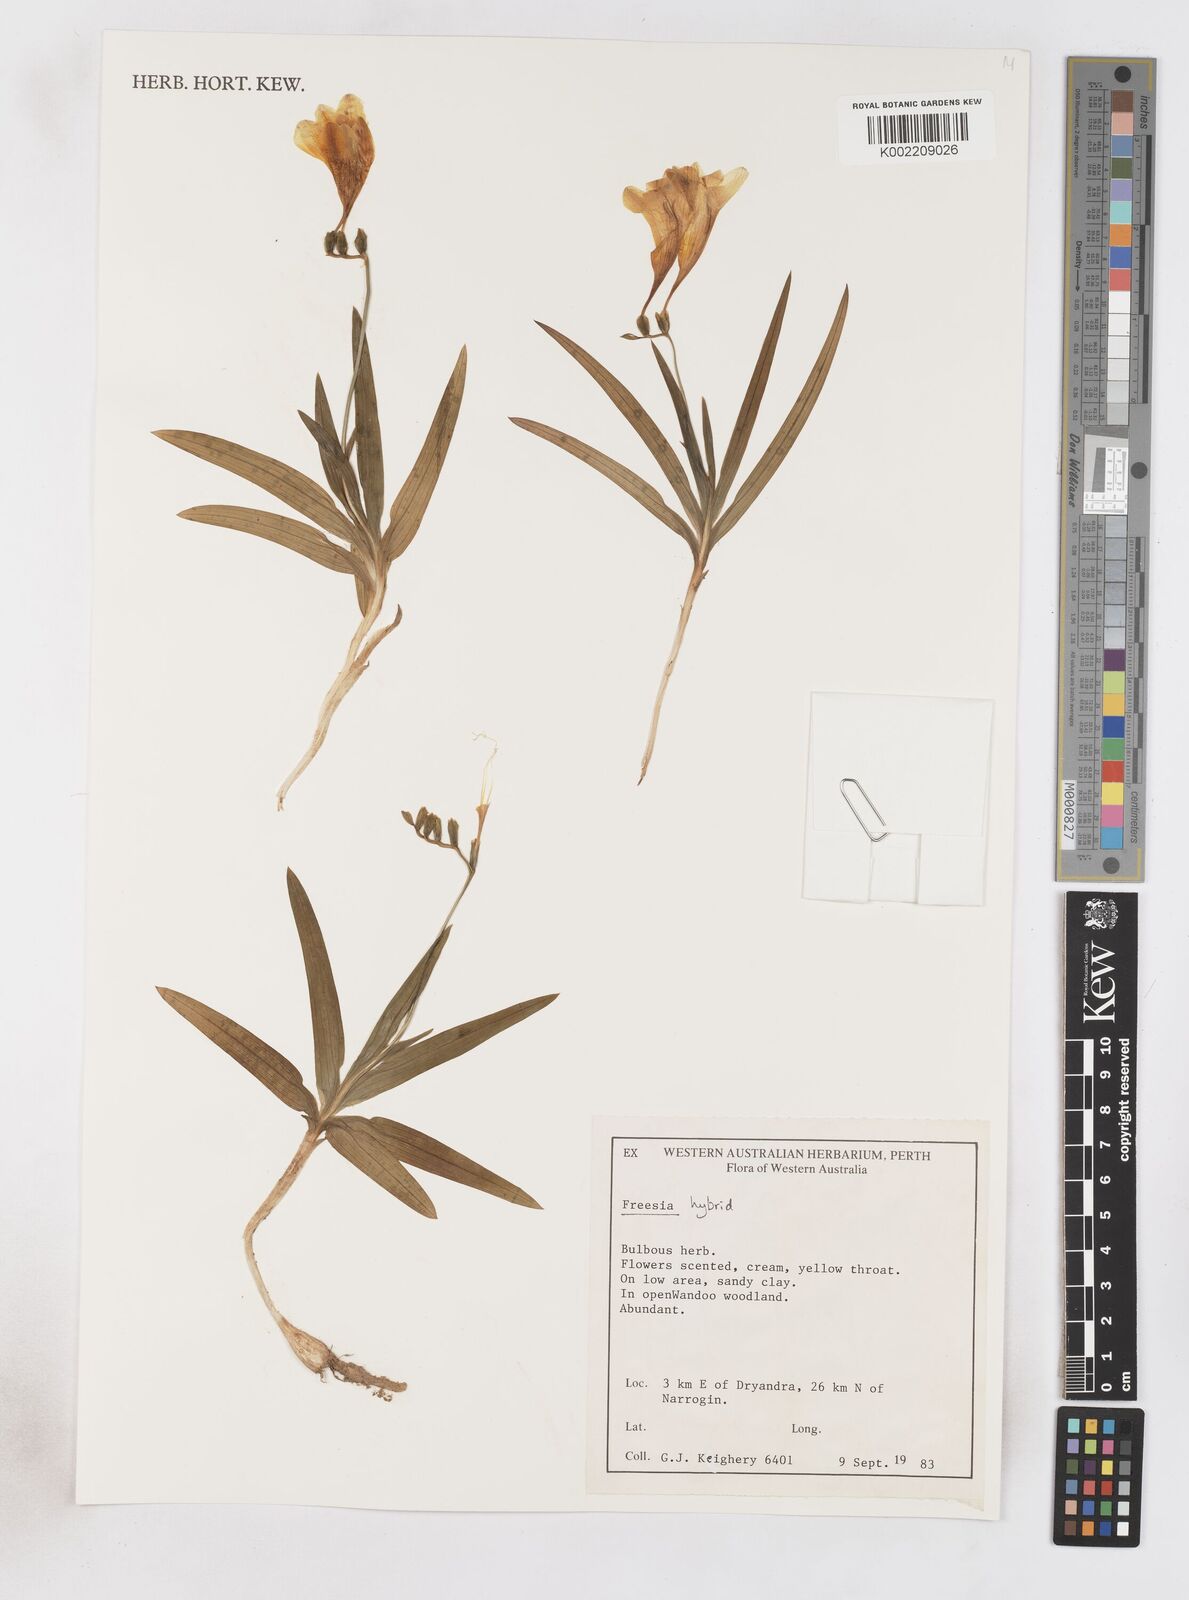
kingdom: Plantae
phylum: Tracheophyta
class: Liliopsida
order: Asparagales
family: Iridaceae
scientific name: Iridaceae
